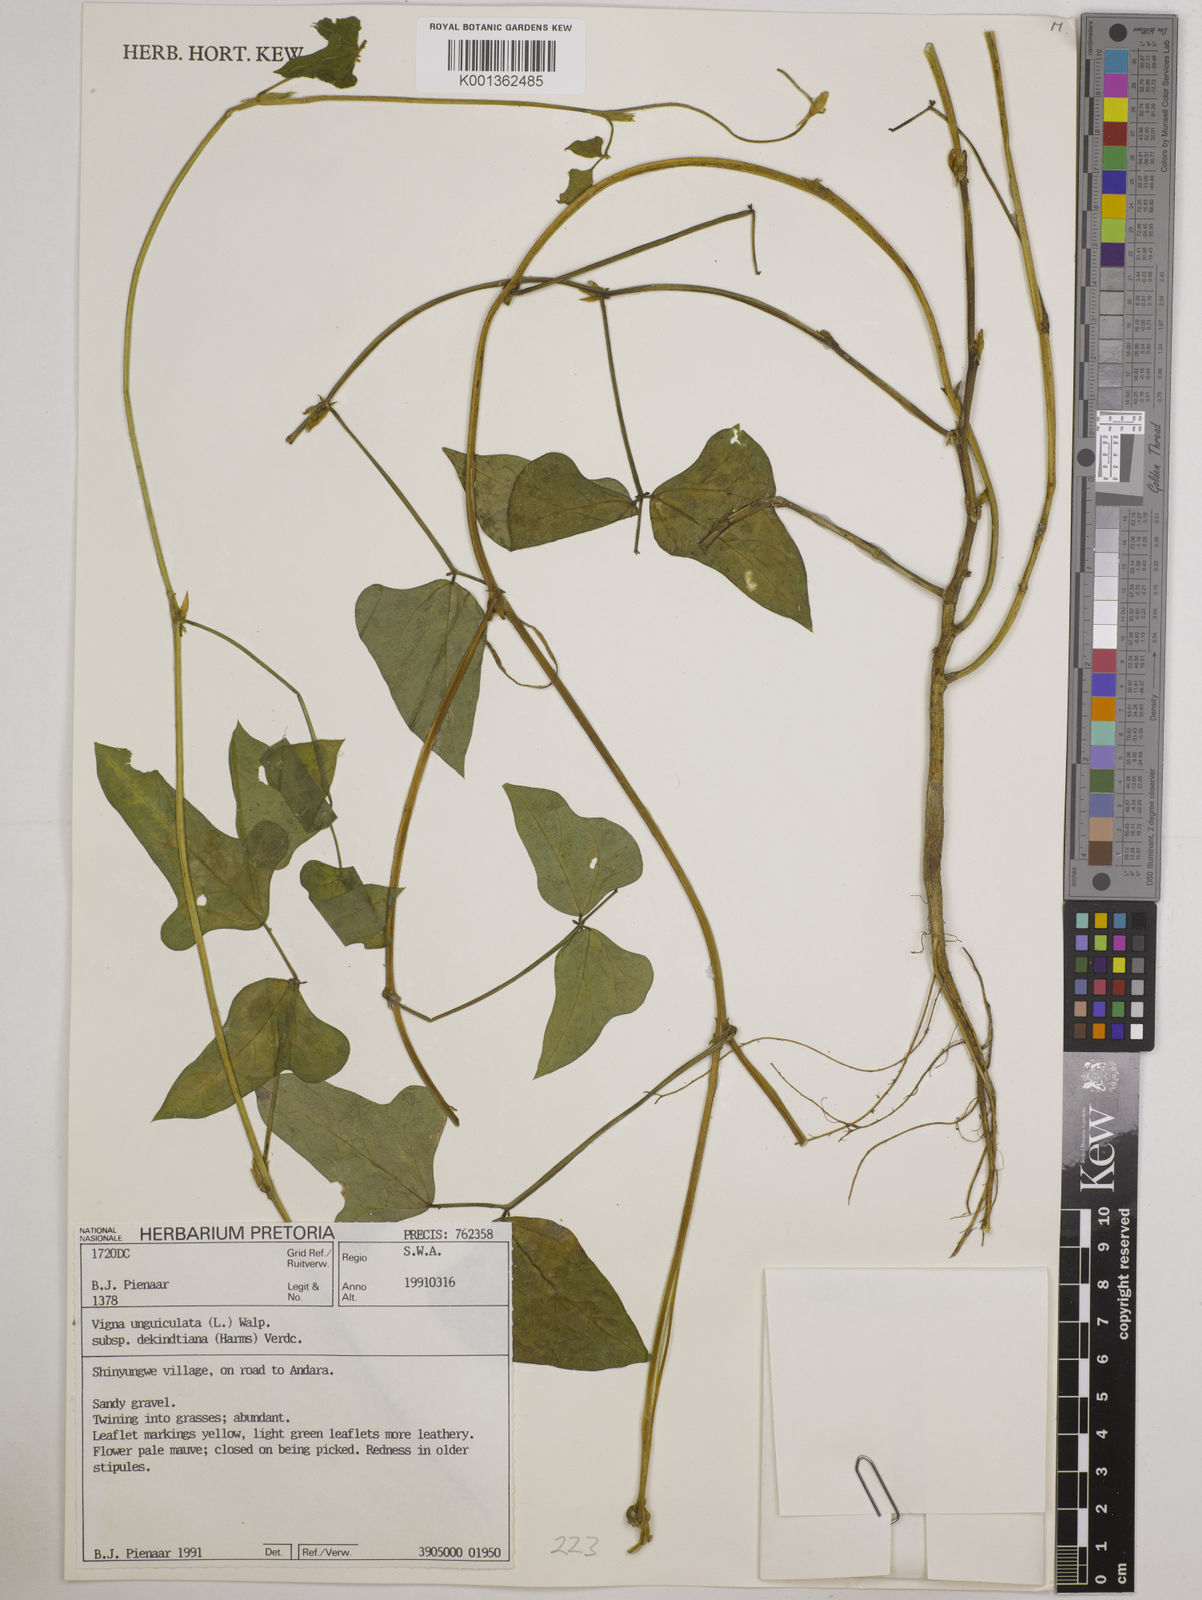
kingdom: Plantae
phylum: Tracheophyta
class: Magnoliopsida
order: Fabales
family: Fabaceae
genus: Vigna
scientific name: Vigna
